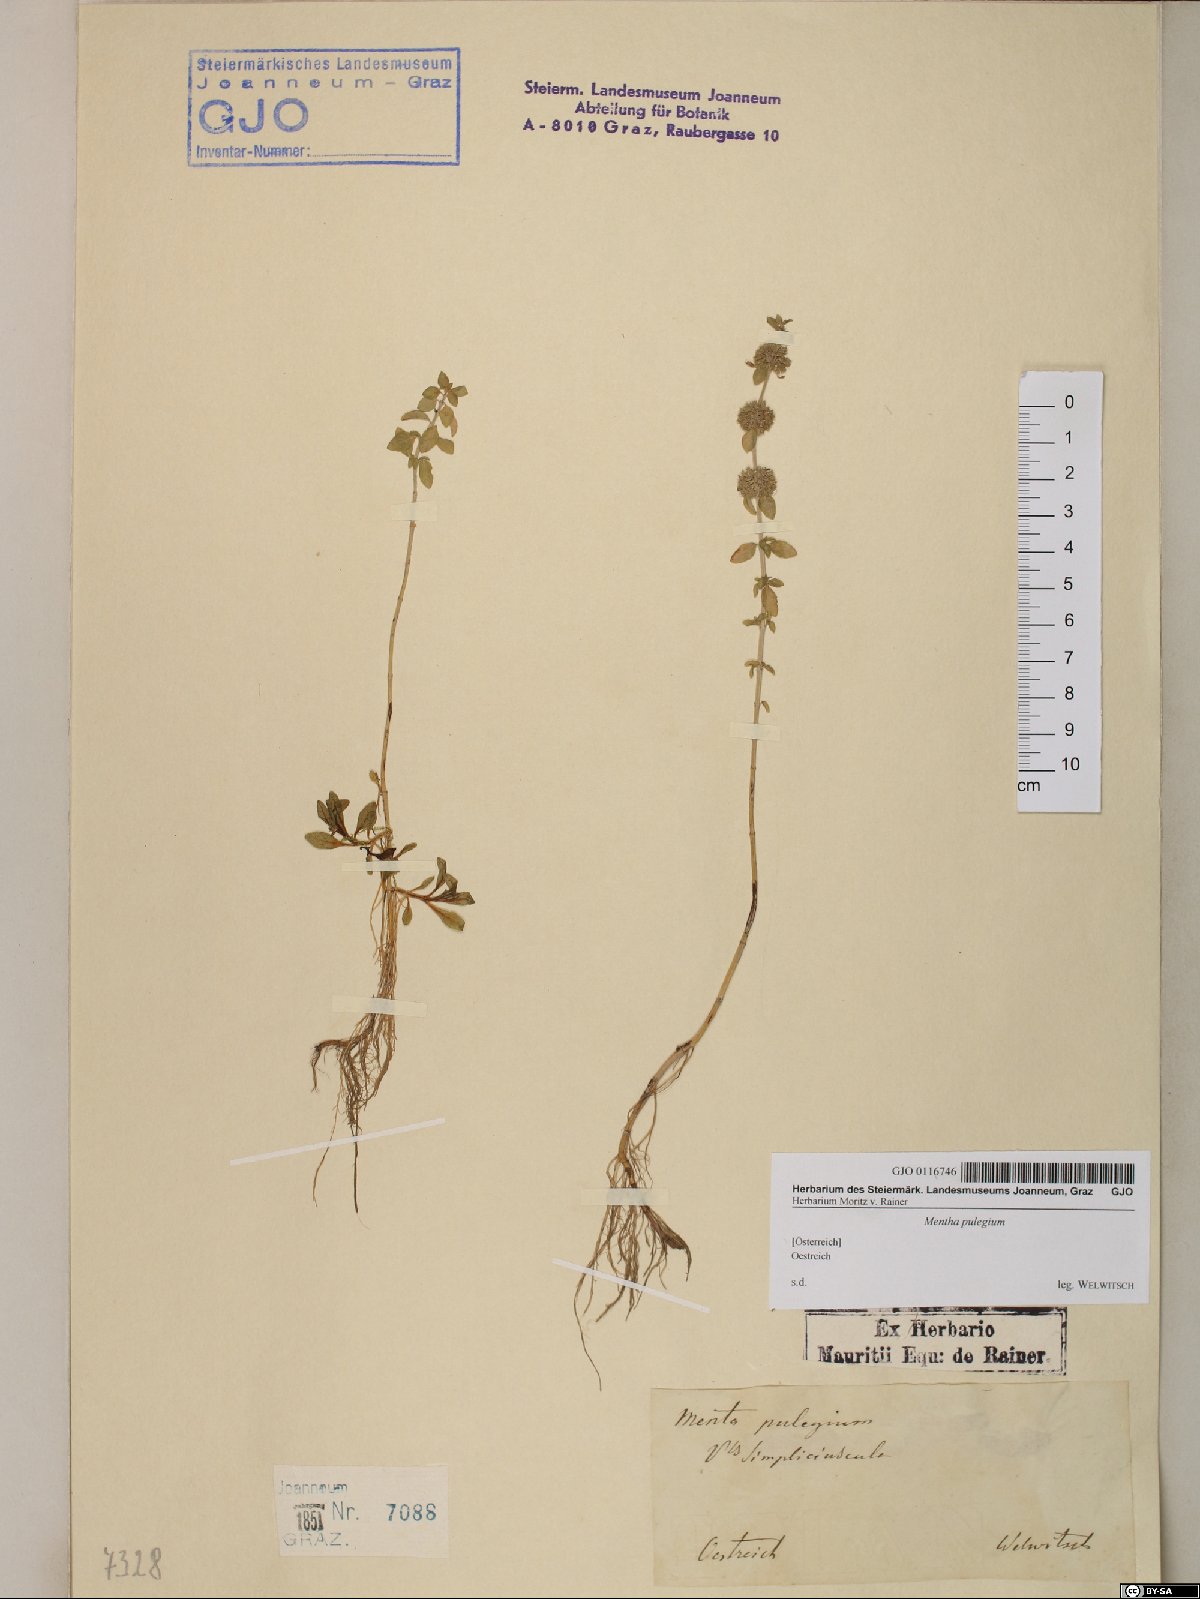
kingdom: Plantae
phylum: Tracheophyta
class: Magnoliopsida
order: Lamiales
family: Lamiaceae
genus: Mentha
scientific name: Mentha pulegium
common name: Pennyroyal
